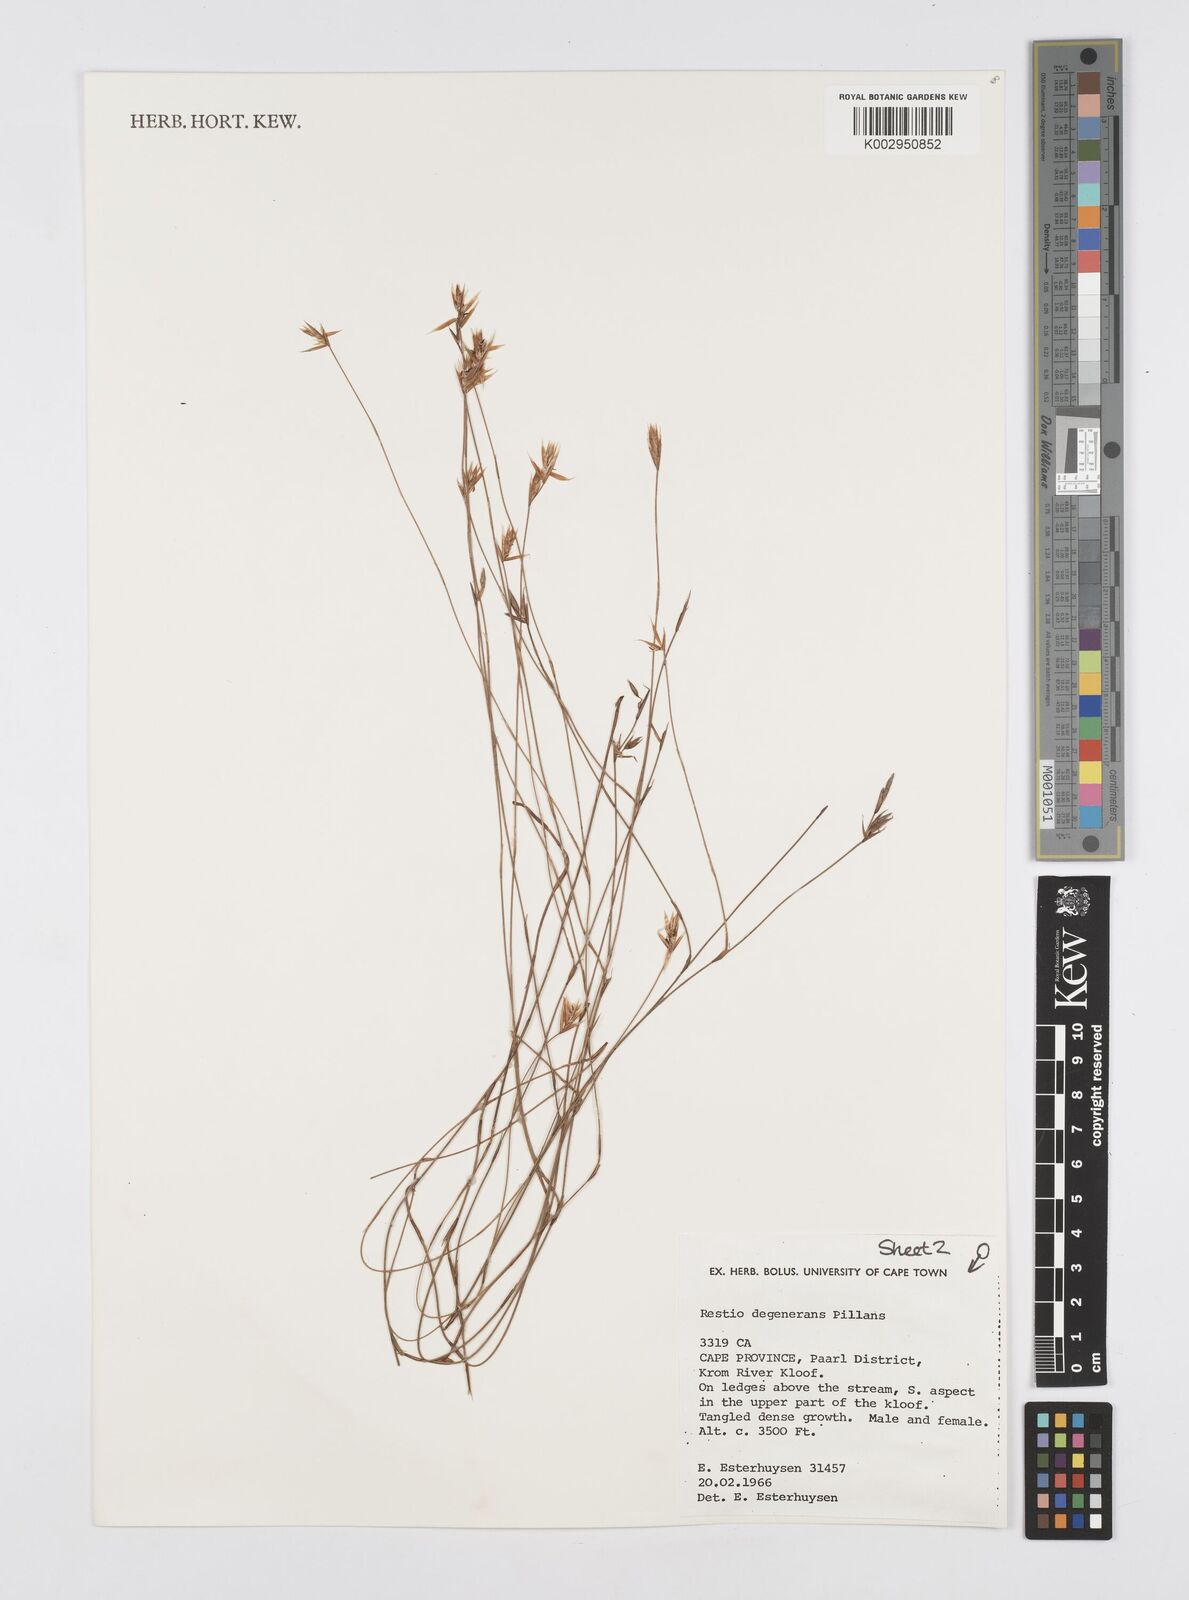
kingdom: Plantae
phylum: Tracheophyta
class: Liliopsida
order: Poales
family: Restionaceae
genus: Restio
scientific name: Restio degenerans
